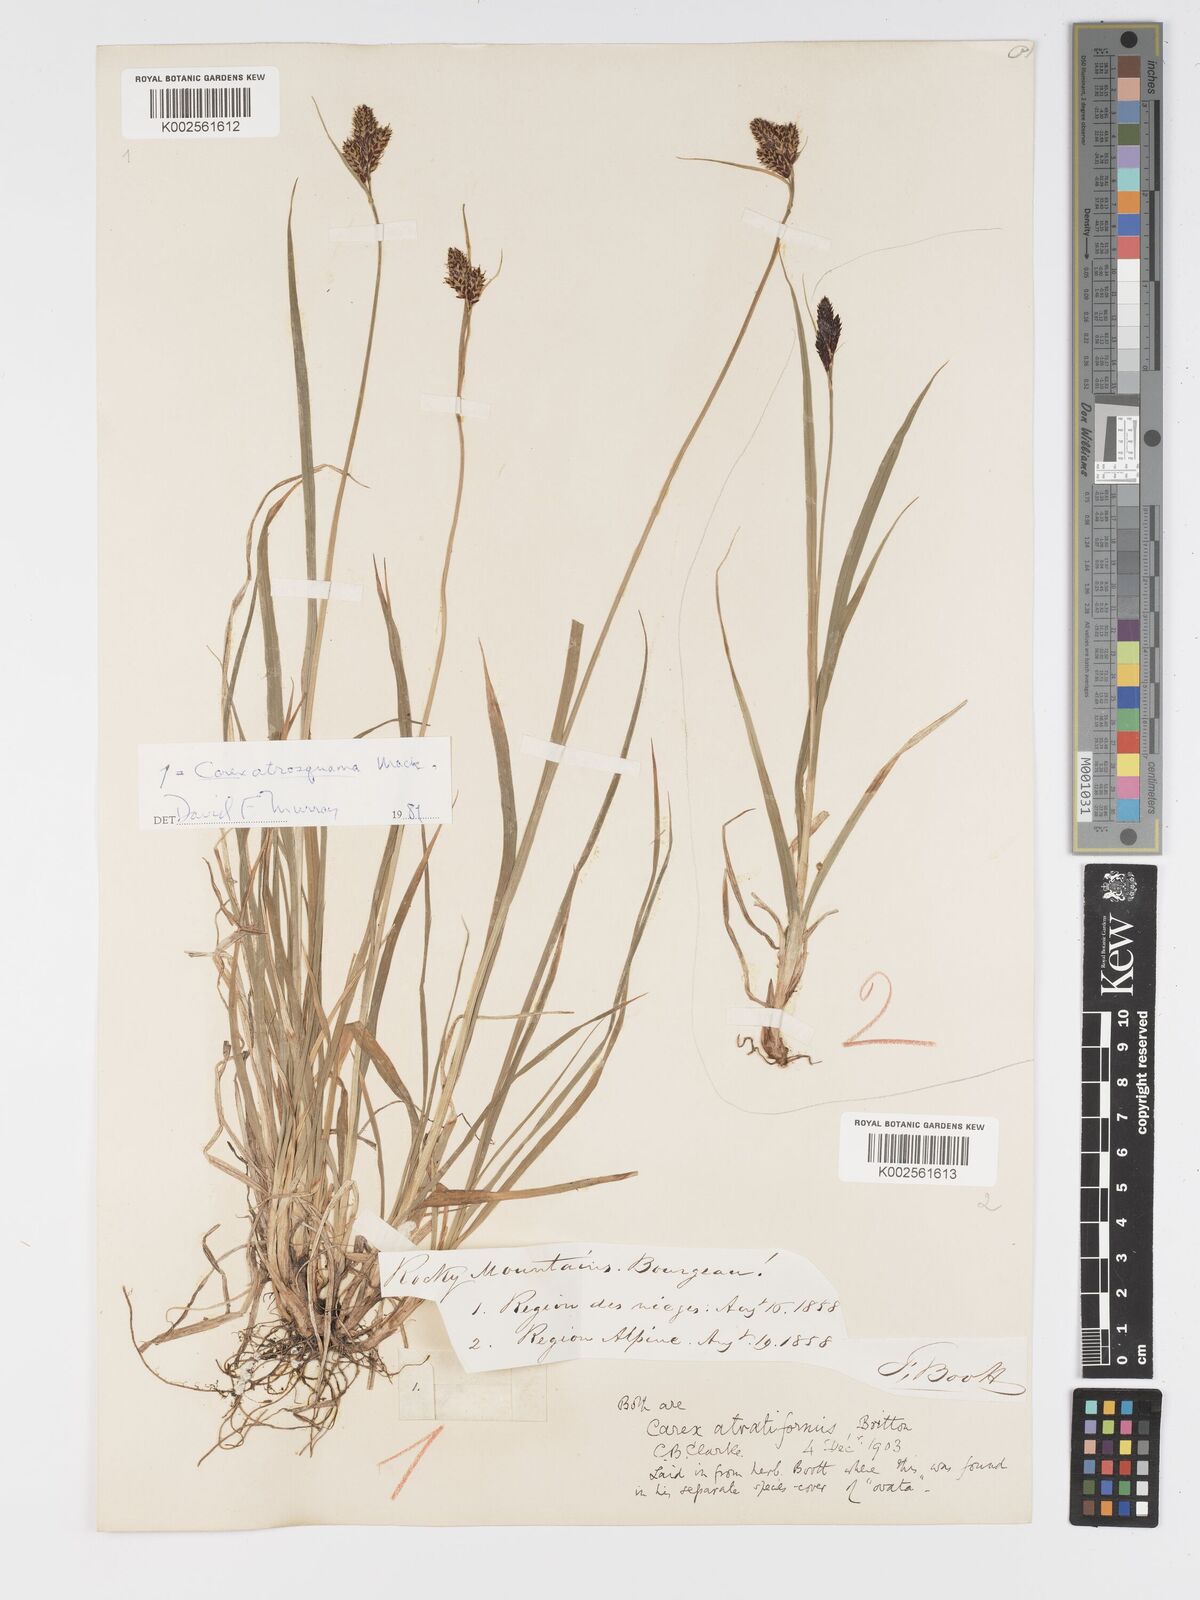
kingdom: Plantae
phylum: Tracheophyta
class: Liliopsida
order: Poales
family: Cyperaceae
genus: Carex
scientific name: Carex atrosquama
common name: Black-scale sedge
